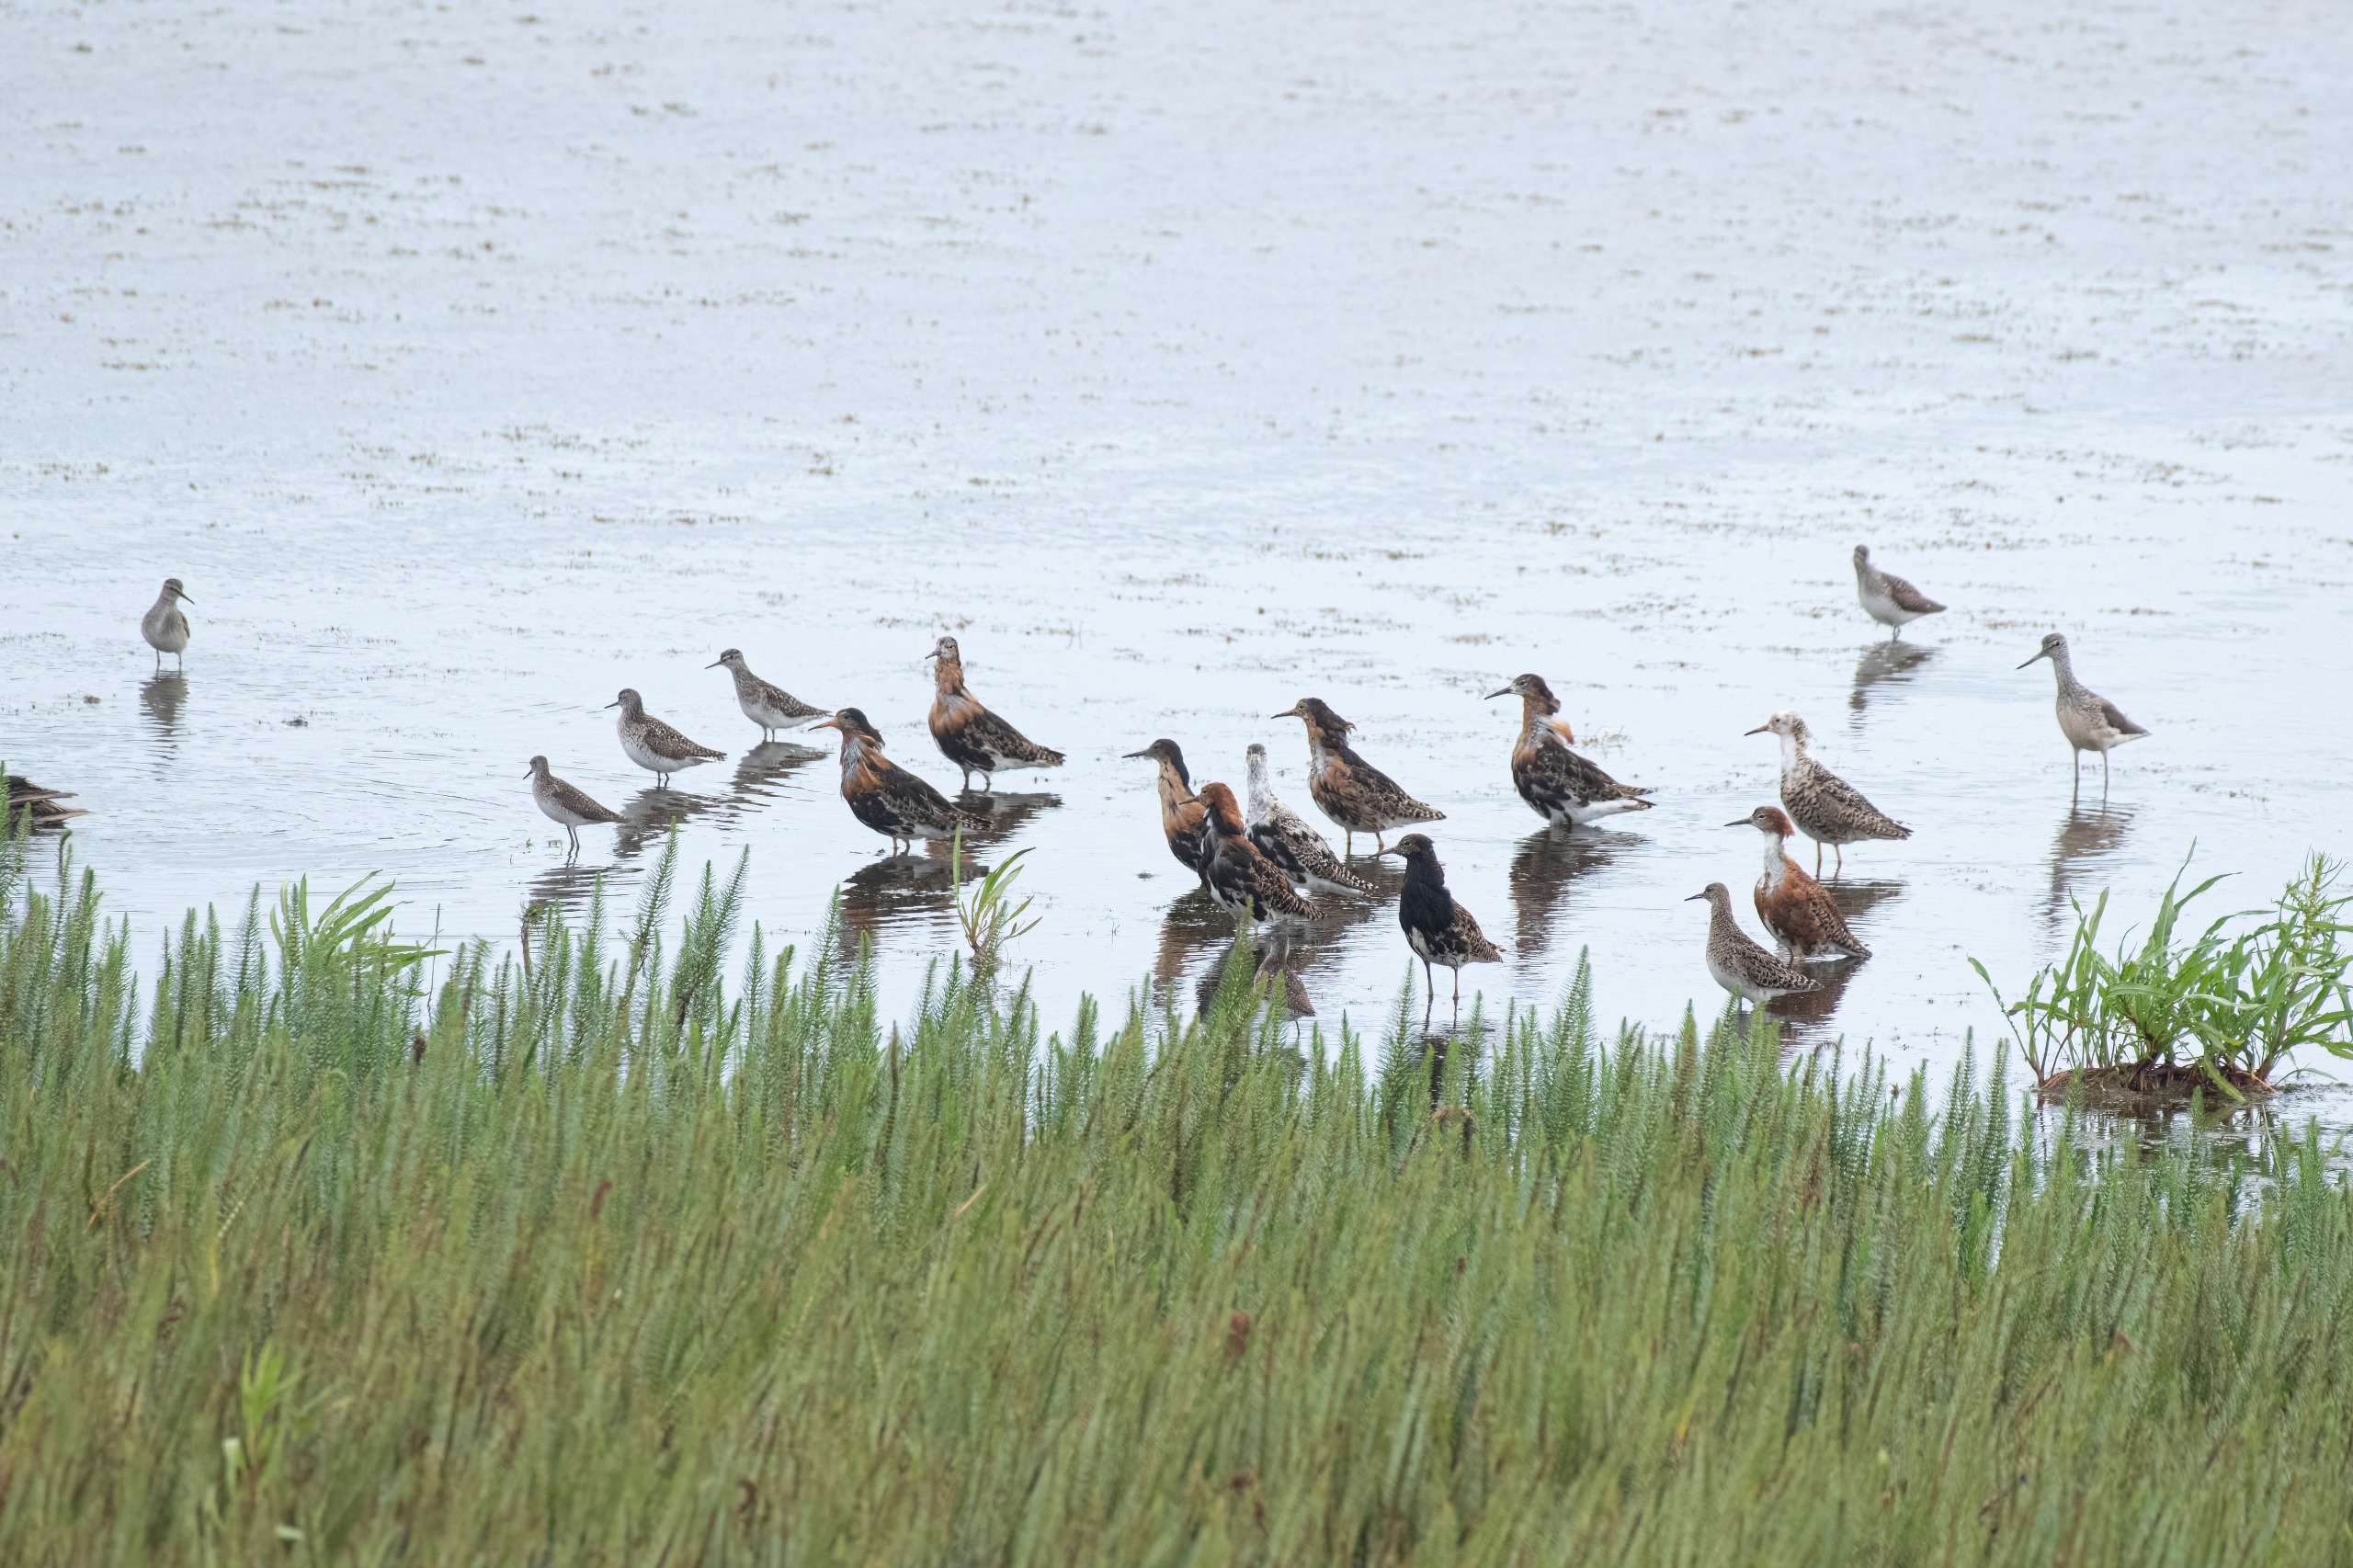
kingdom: Animalia
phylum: Chordata
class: Aves
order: Charadriiformes
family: Scolopacidae
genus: Calidris
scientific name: Calidris pugnax
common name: Brushane
